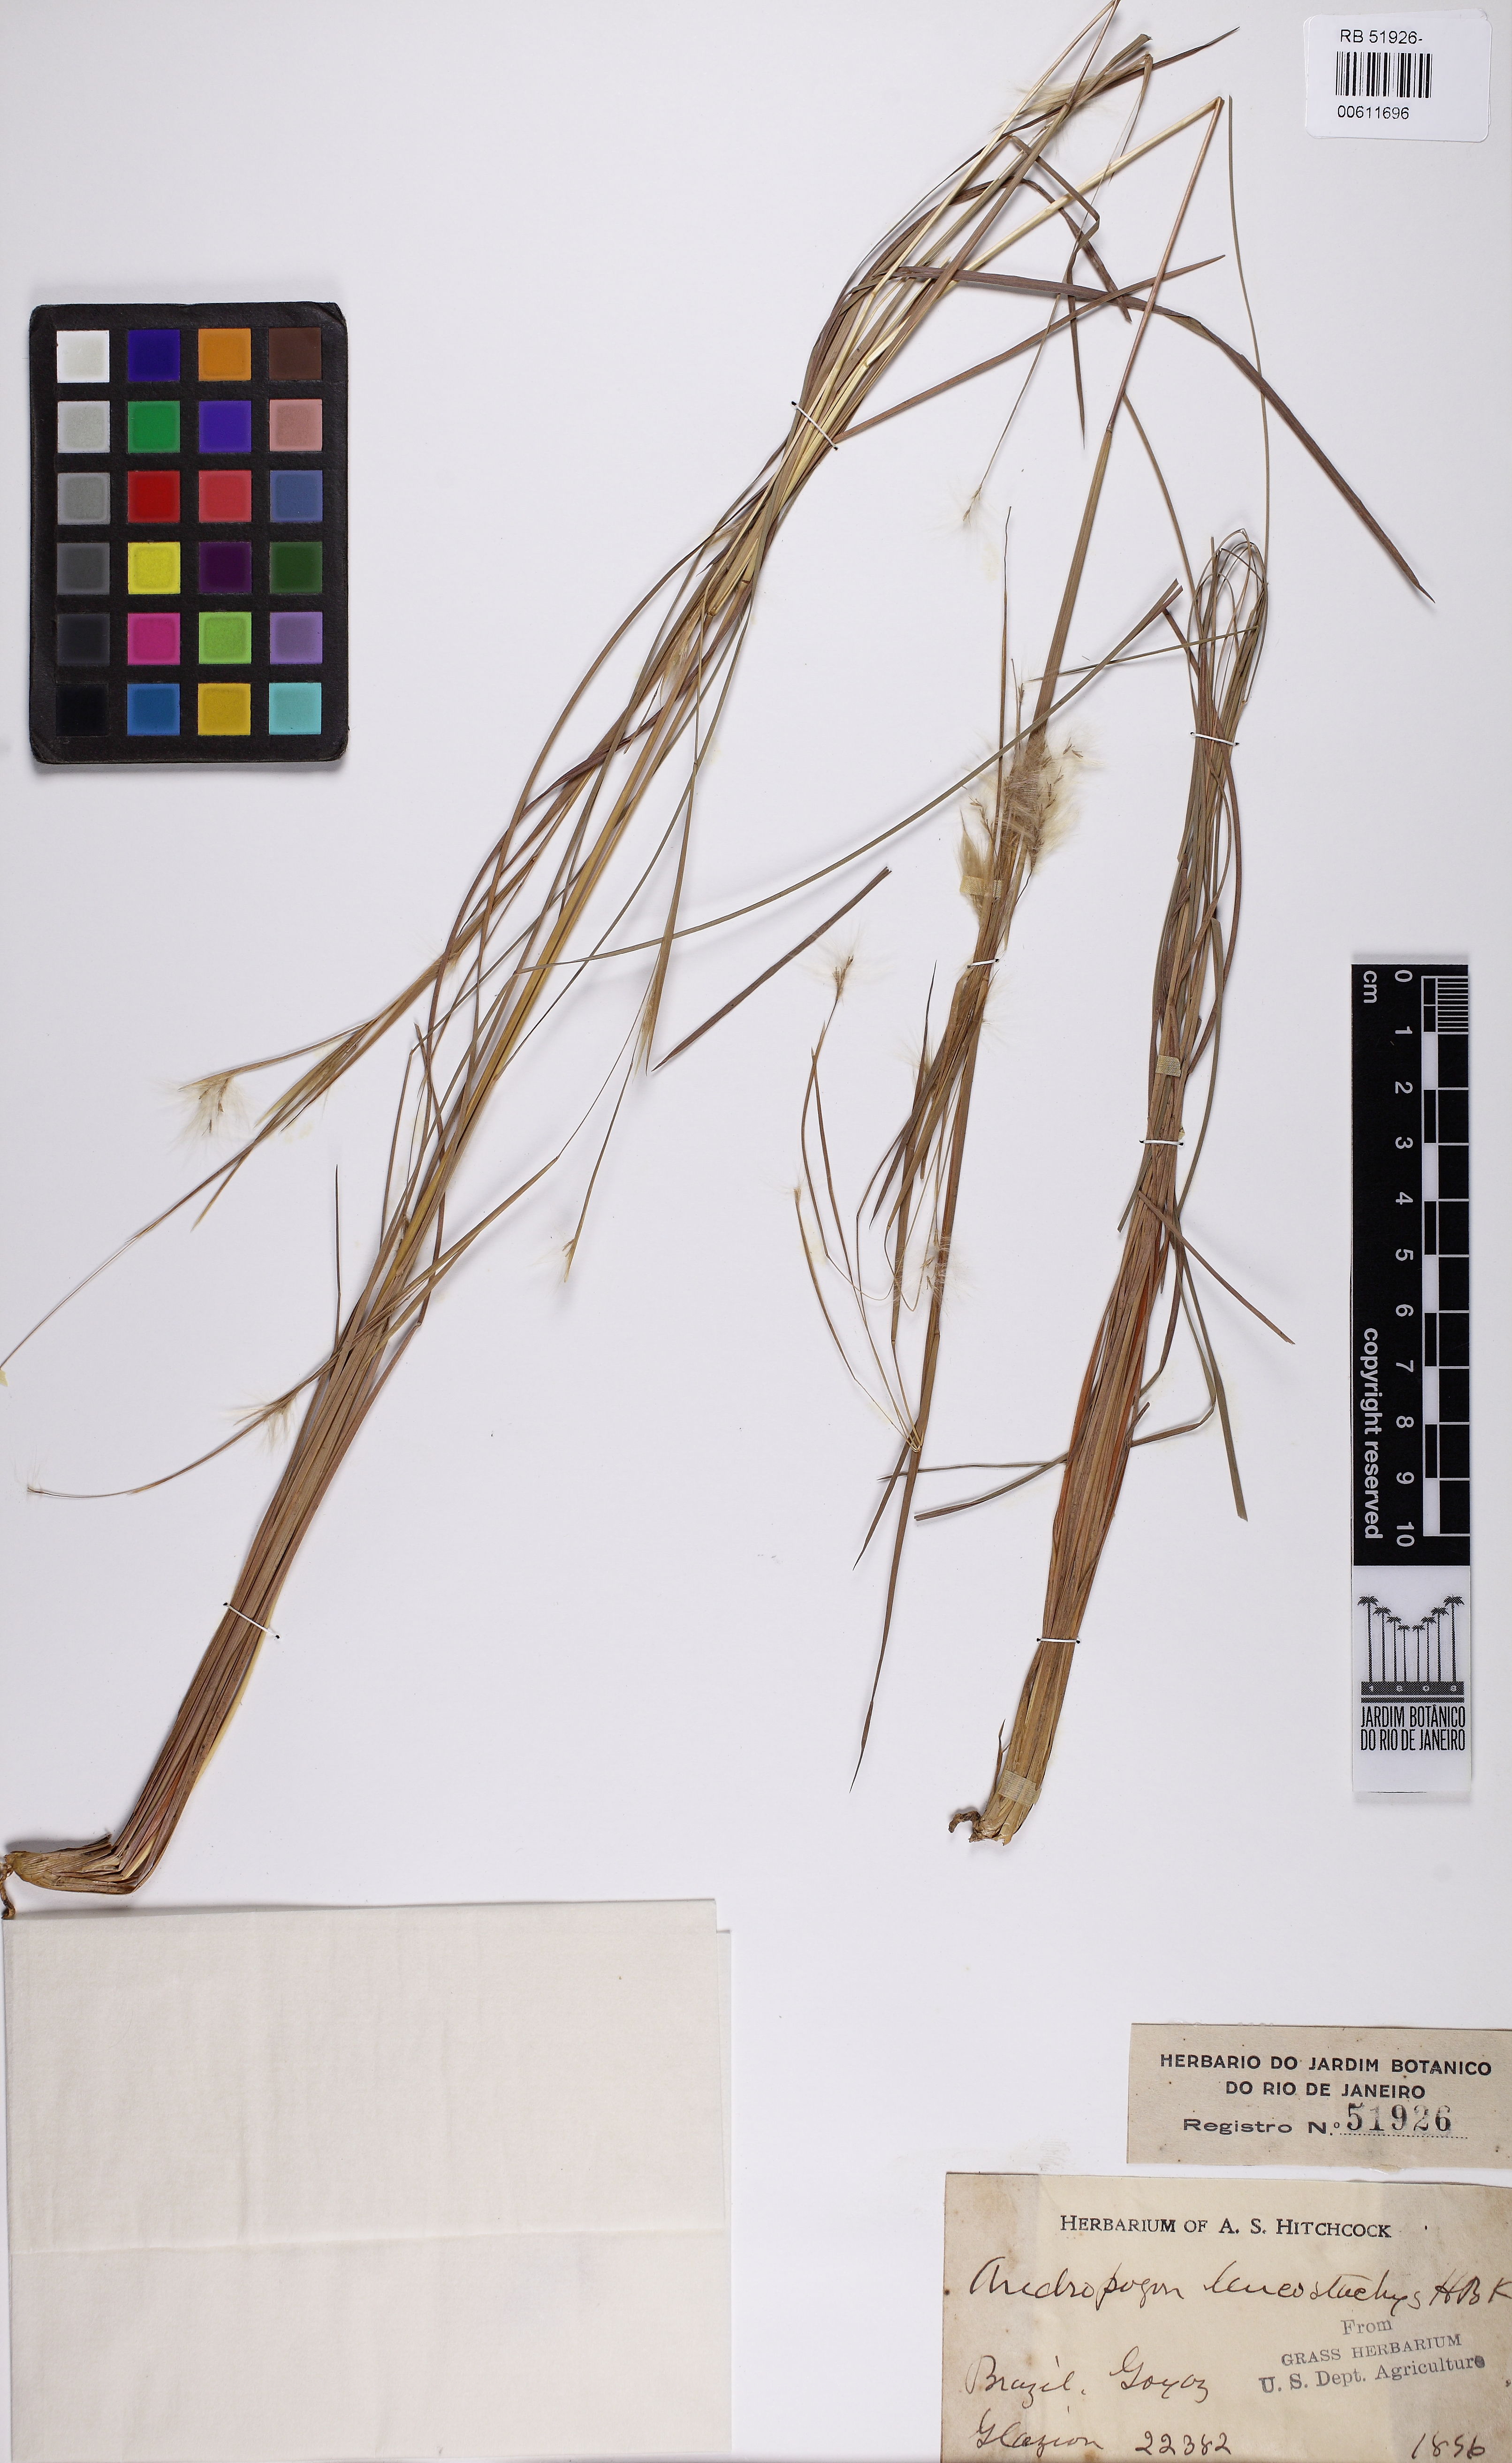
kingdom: Plantae
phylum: Tracheophyta
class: Liliopsida
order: Poales
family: Poaceae
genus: Andropogon
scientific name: Andropogon leucostachyus
